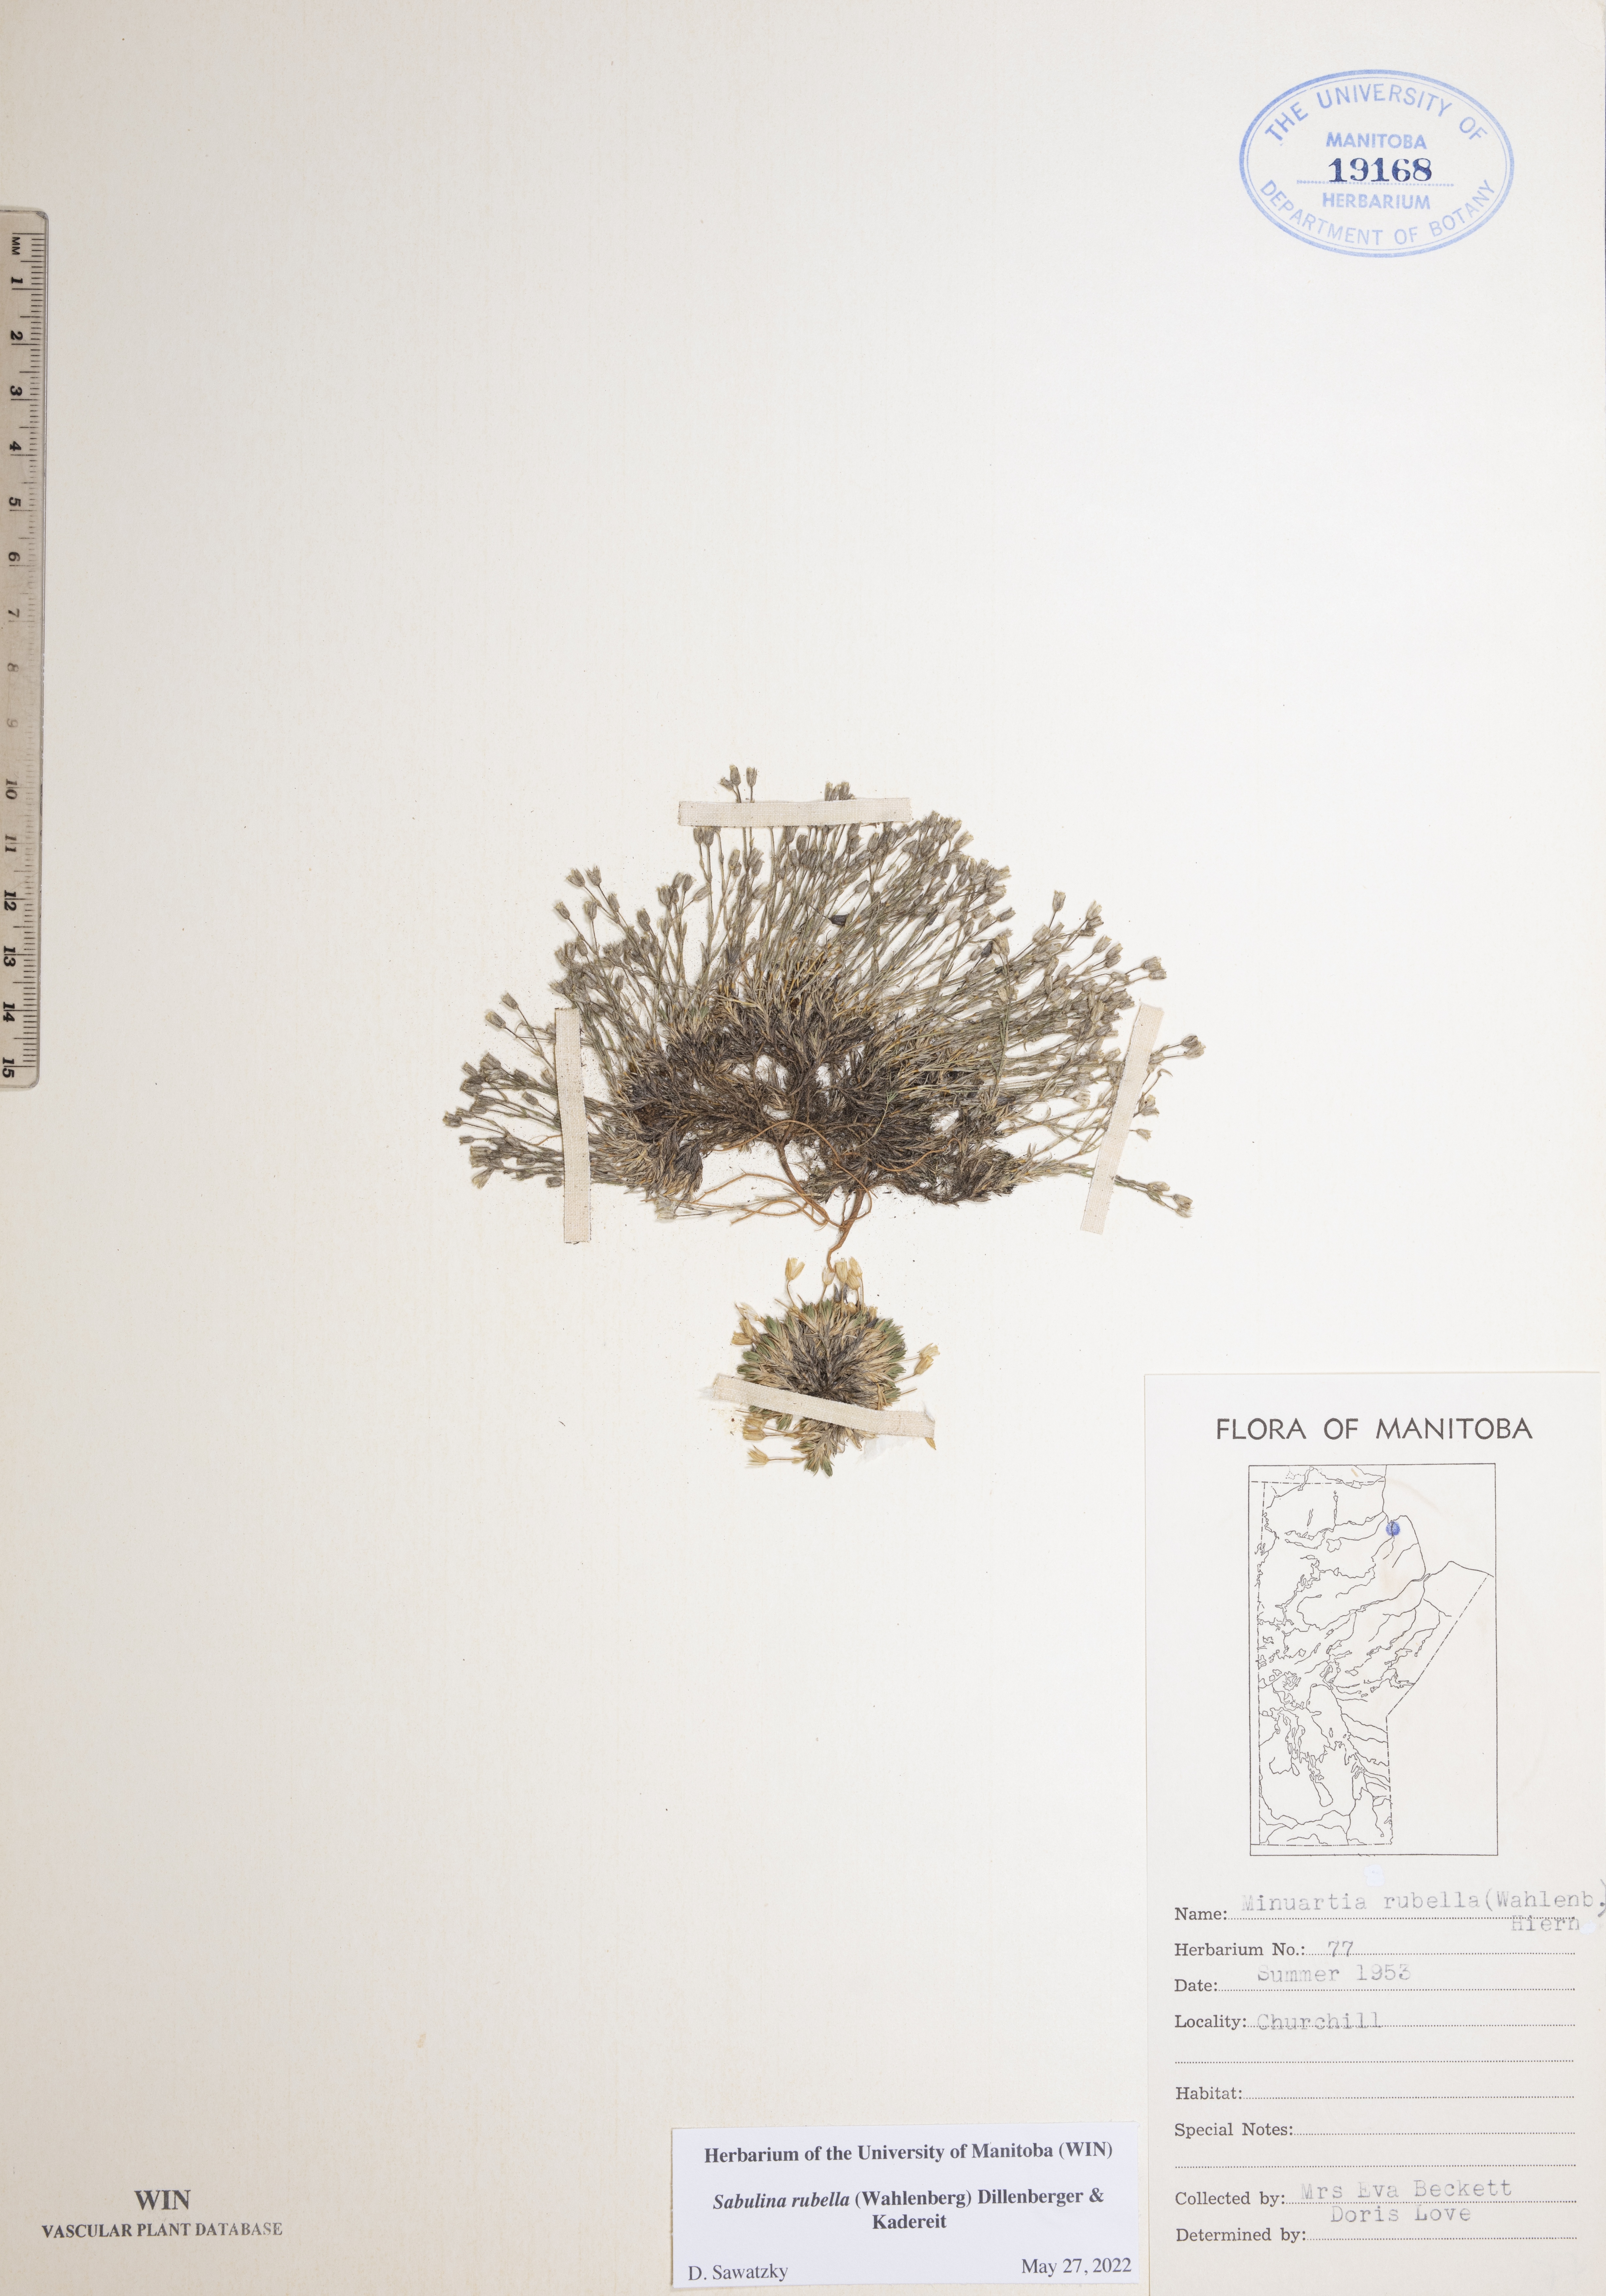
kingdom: Plantae
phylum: Tracheophyta
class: Magnoliopsida
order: Caryophyllales
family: Caryophyllaceae
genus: Sabulina
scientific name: Sabulina rubella
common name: Beautiful sandwort
